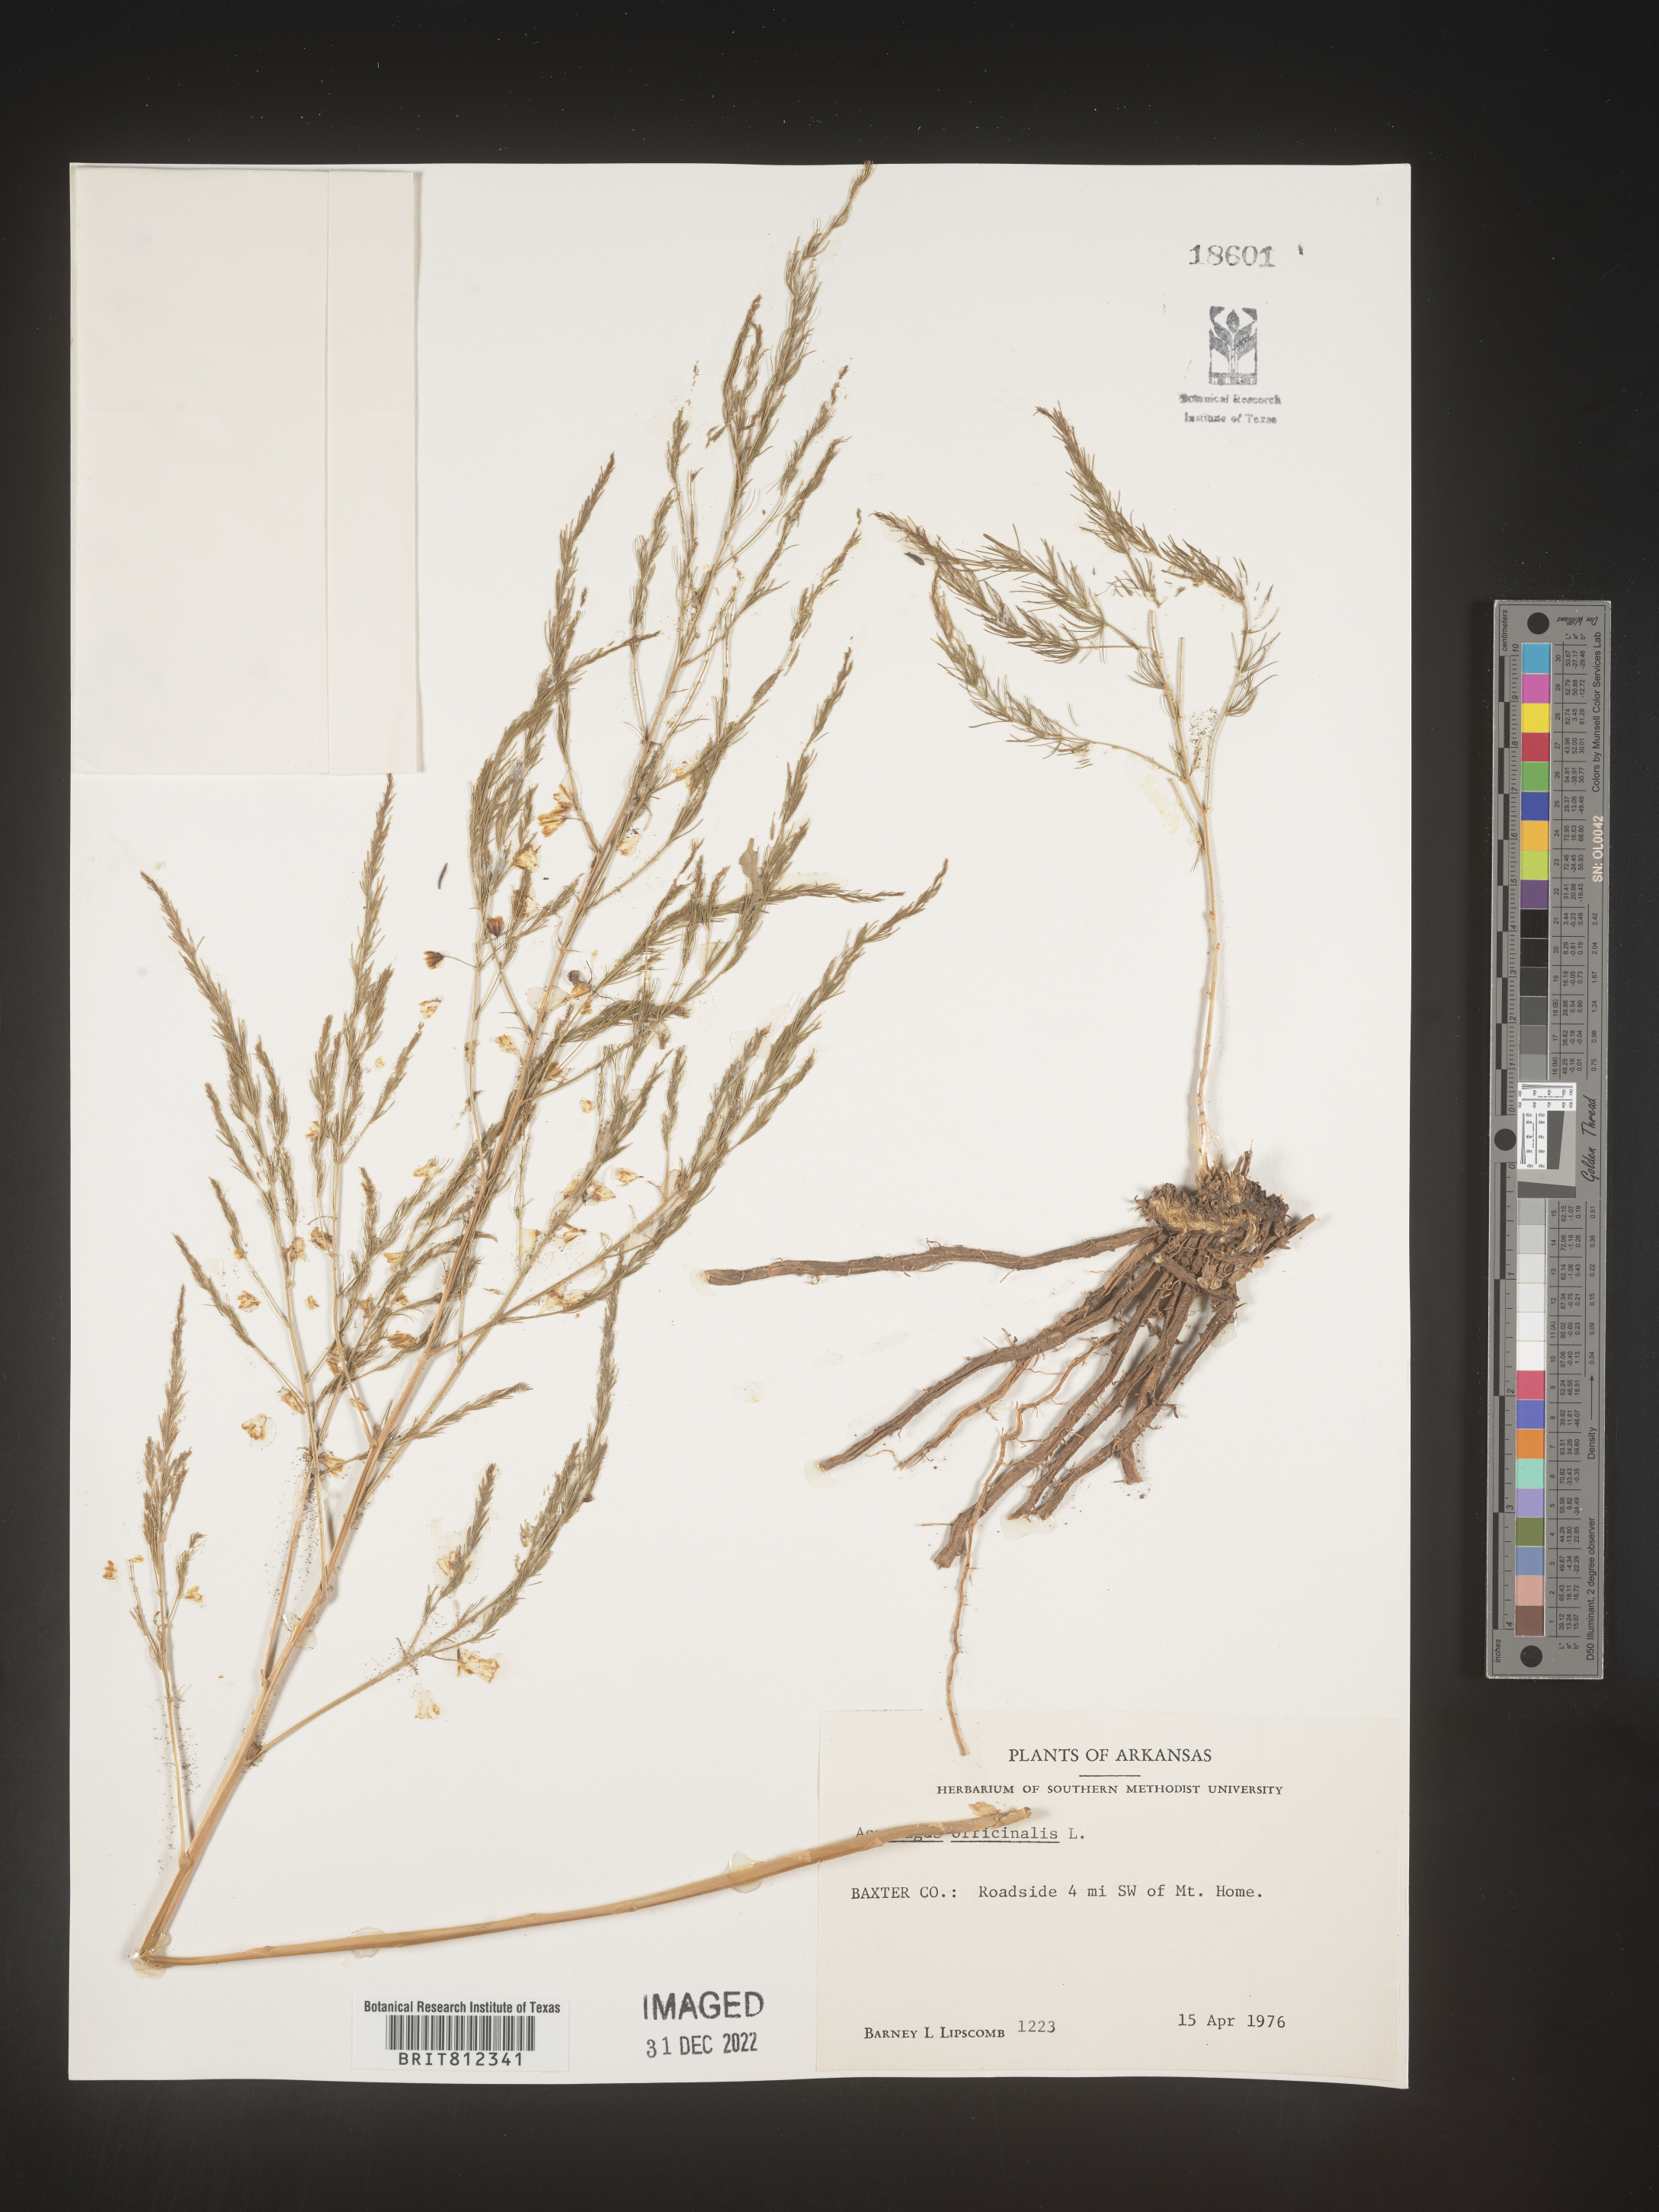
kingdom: Plantae
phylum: Tracheophyta
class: Magnoliopsida
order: Fabales
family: Fabaceae
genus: Astragalus
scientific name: Astragalus
